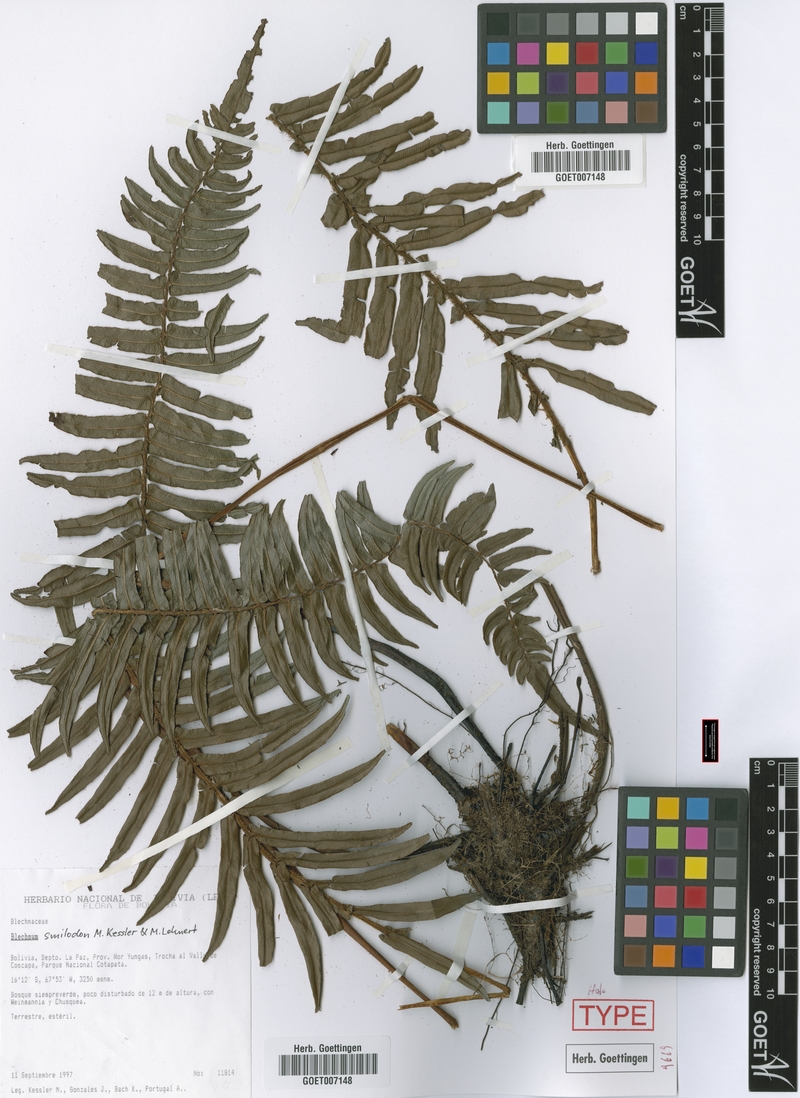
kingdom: Plantae
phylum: Tracheophyta
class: Polypodiopsida
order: Polypodiales
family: Blechnaceae
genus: Parablechnum
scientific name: Parablechnum smilodon
